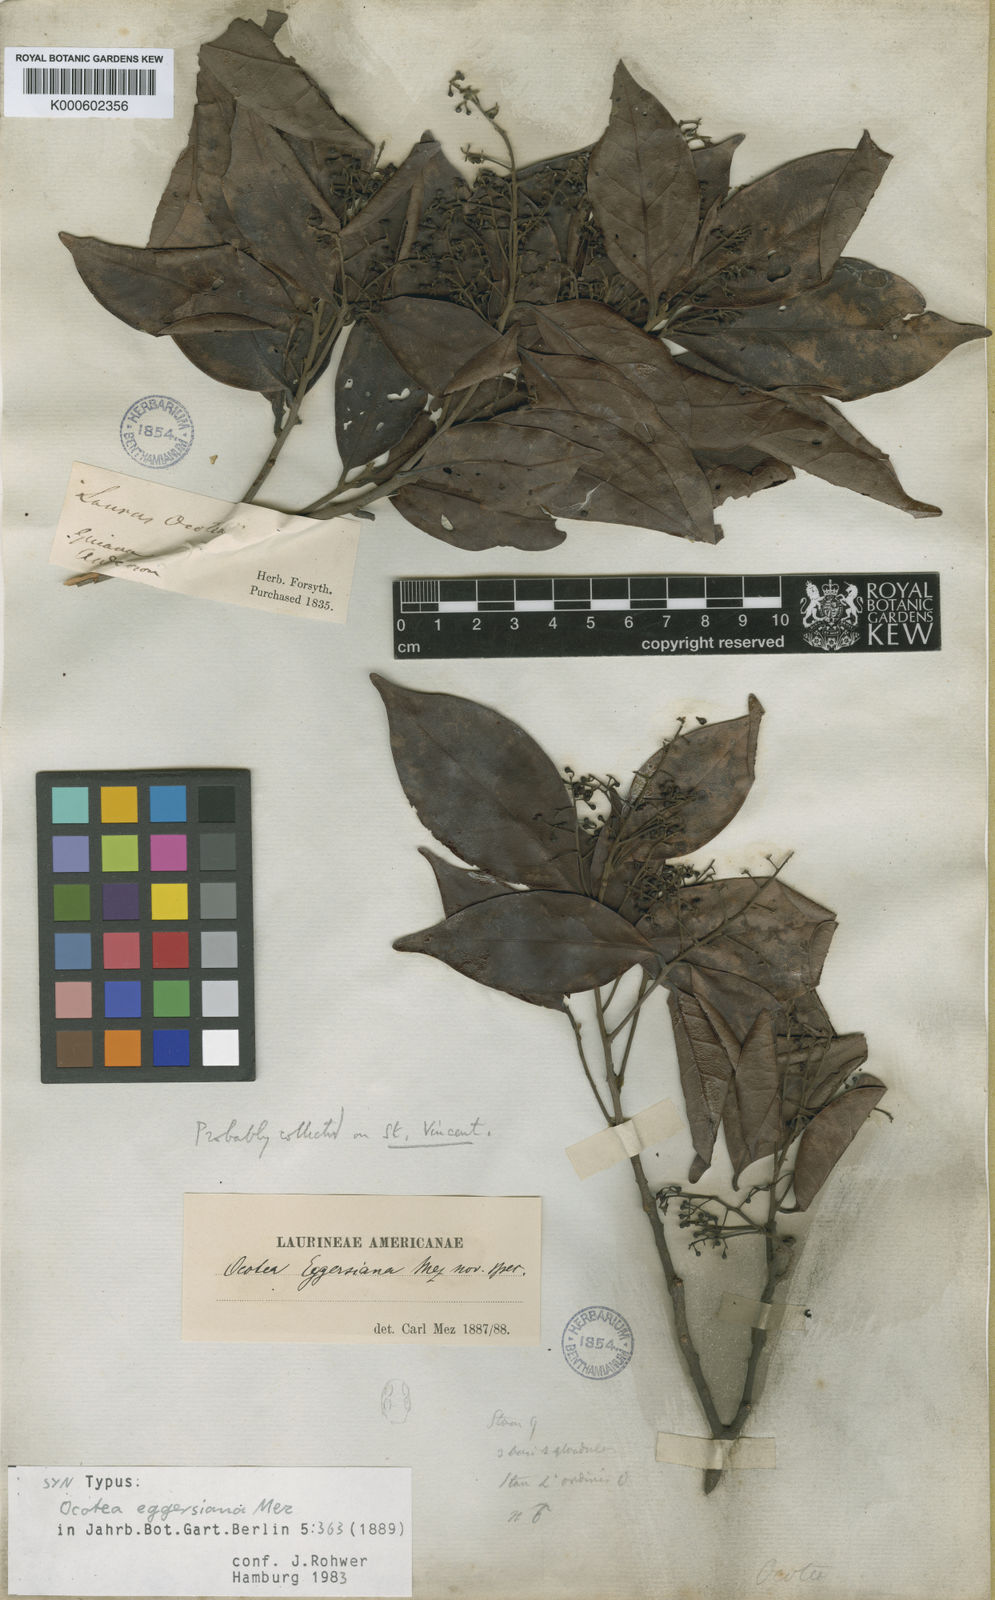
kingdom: Plantae
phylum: Tracheophyta
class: Magnoliopsida
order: Laurales
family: Lauraceae
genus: Ocotea
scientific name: Ocotea eggersiana
